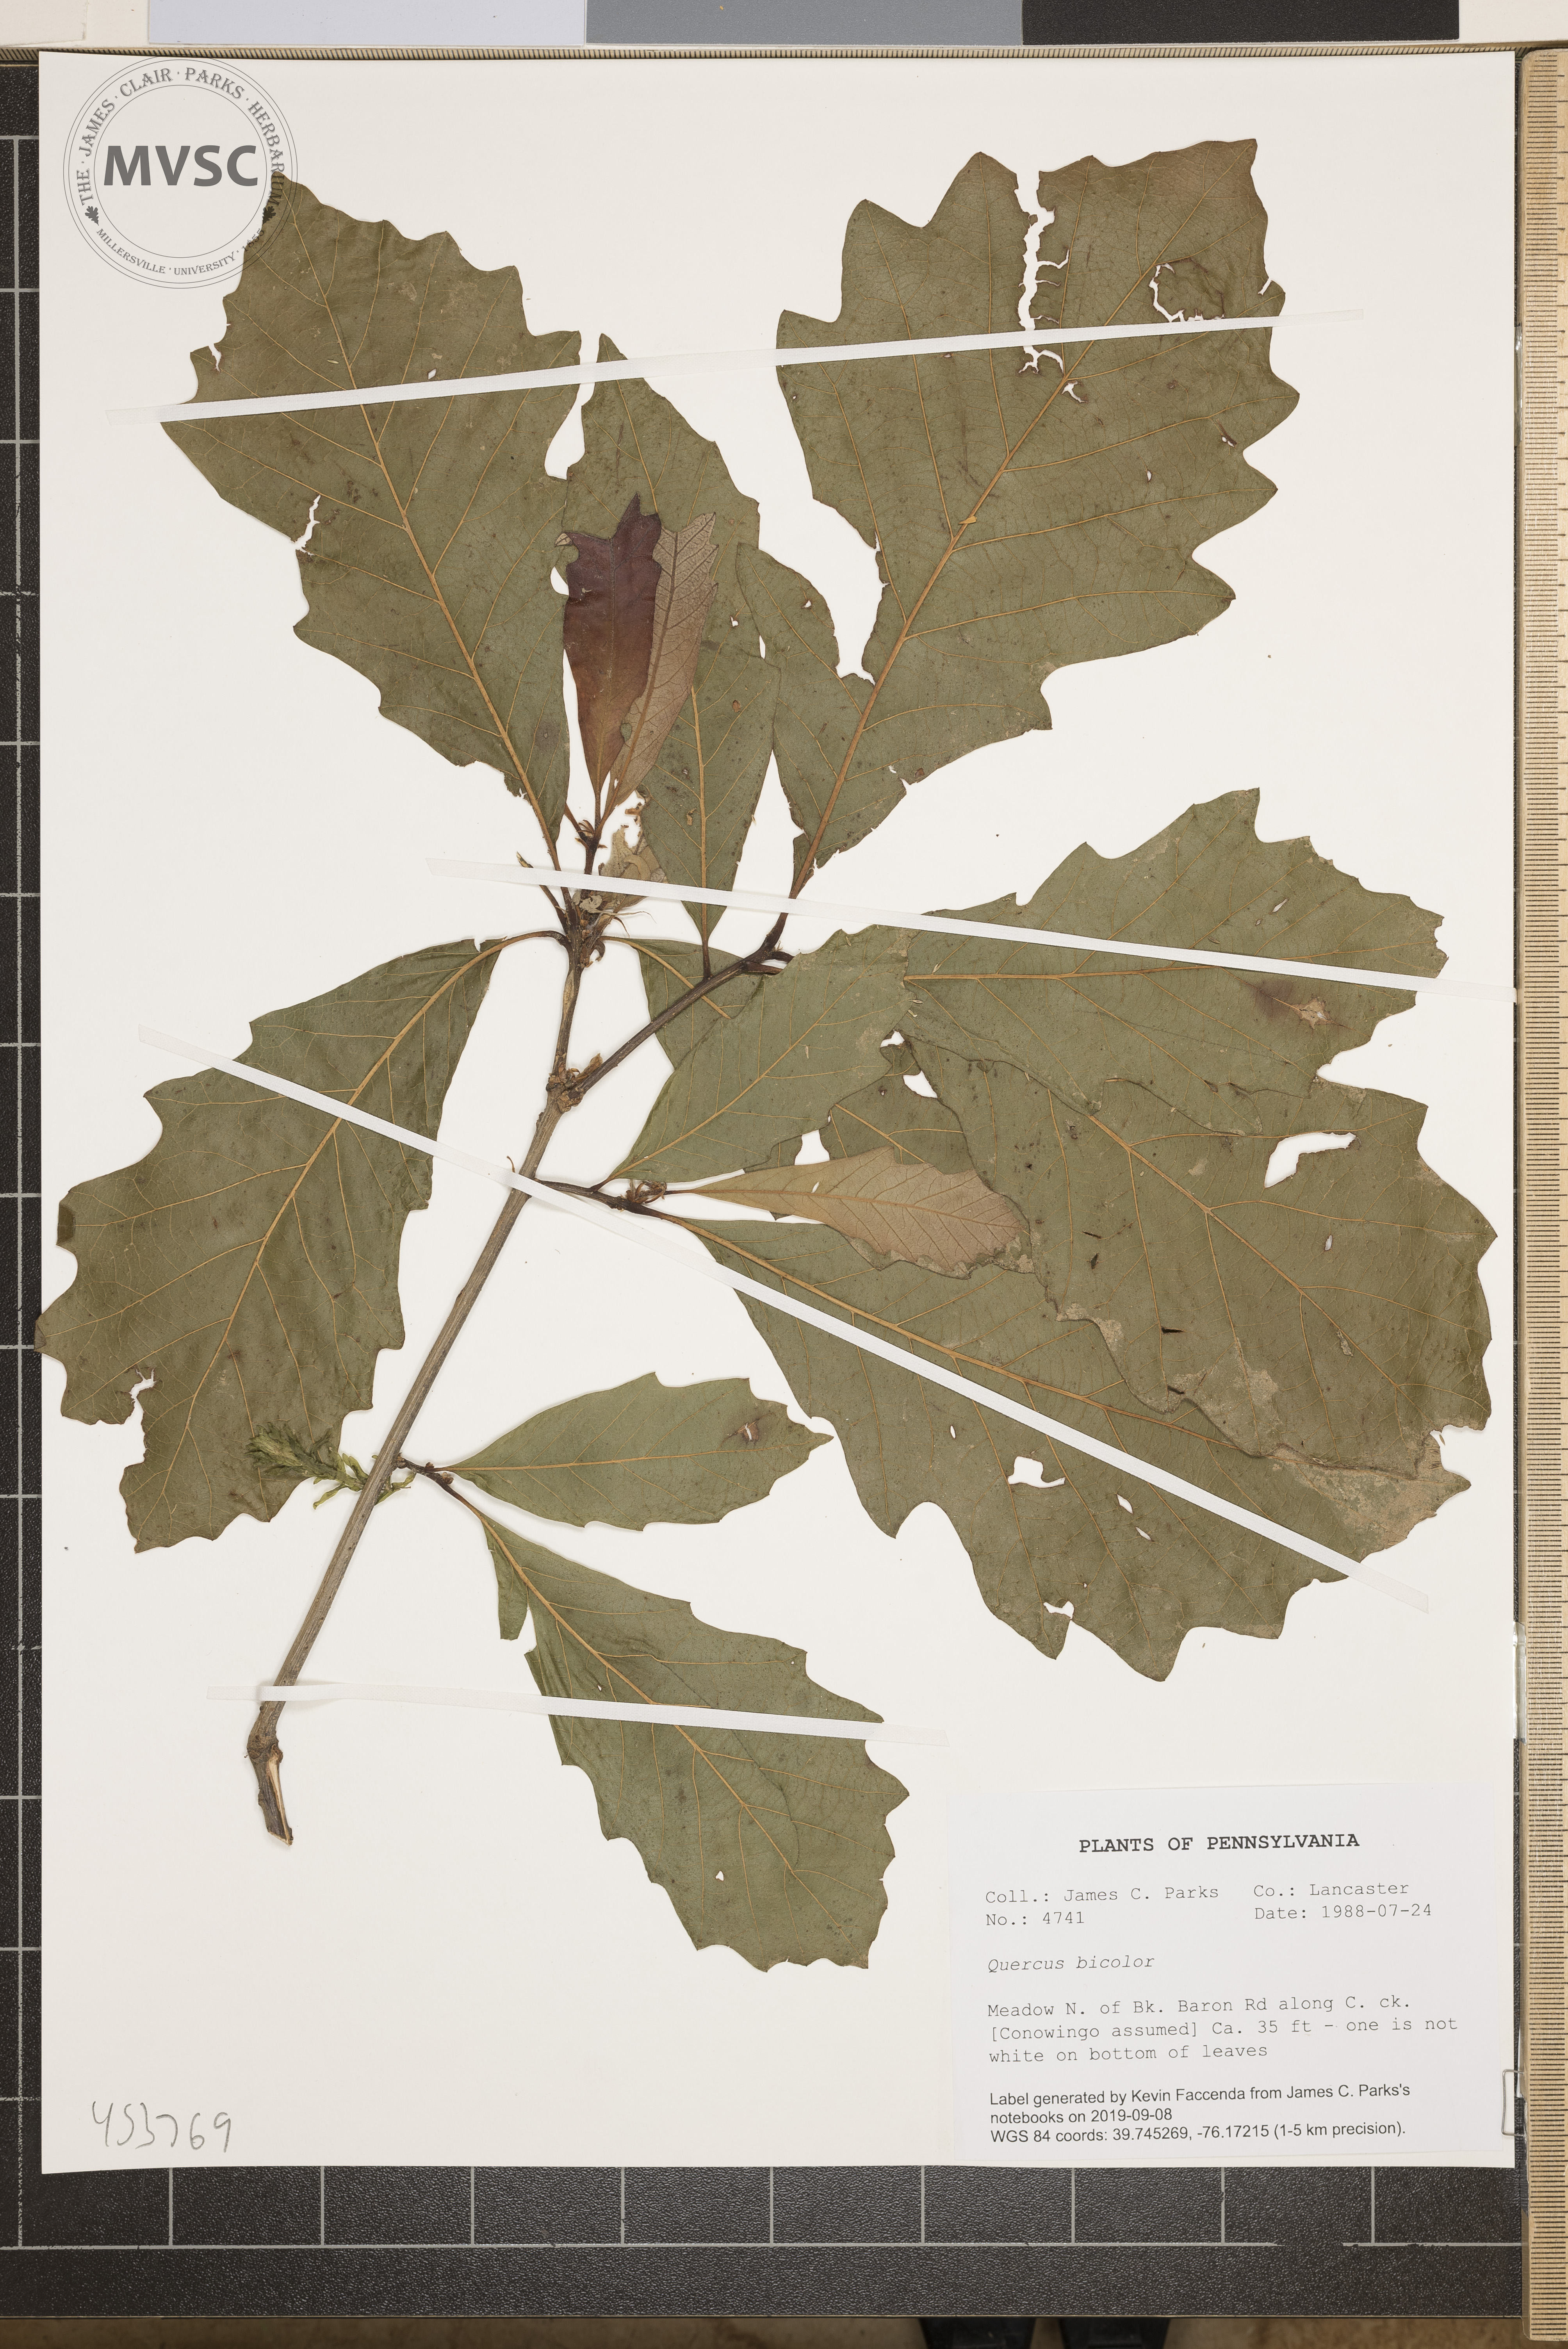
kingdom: Plantae
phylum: Tracheophyta
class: Magnoliopsida
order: Fagales
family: Fagaceae
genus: Quercus
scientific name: Quercus bicolor
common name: Swamp white oak
